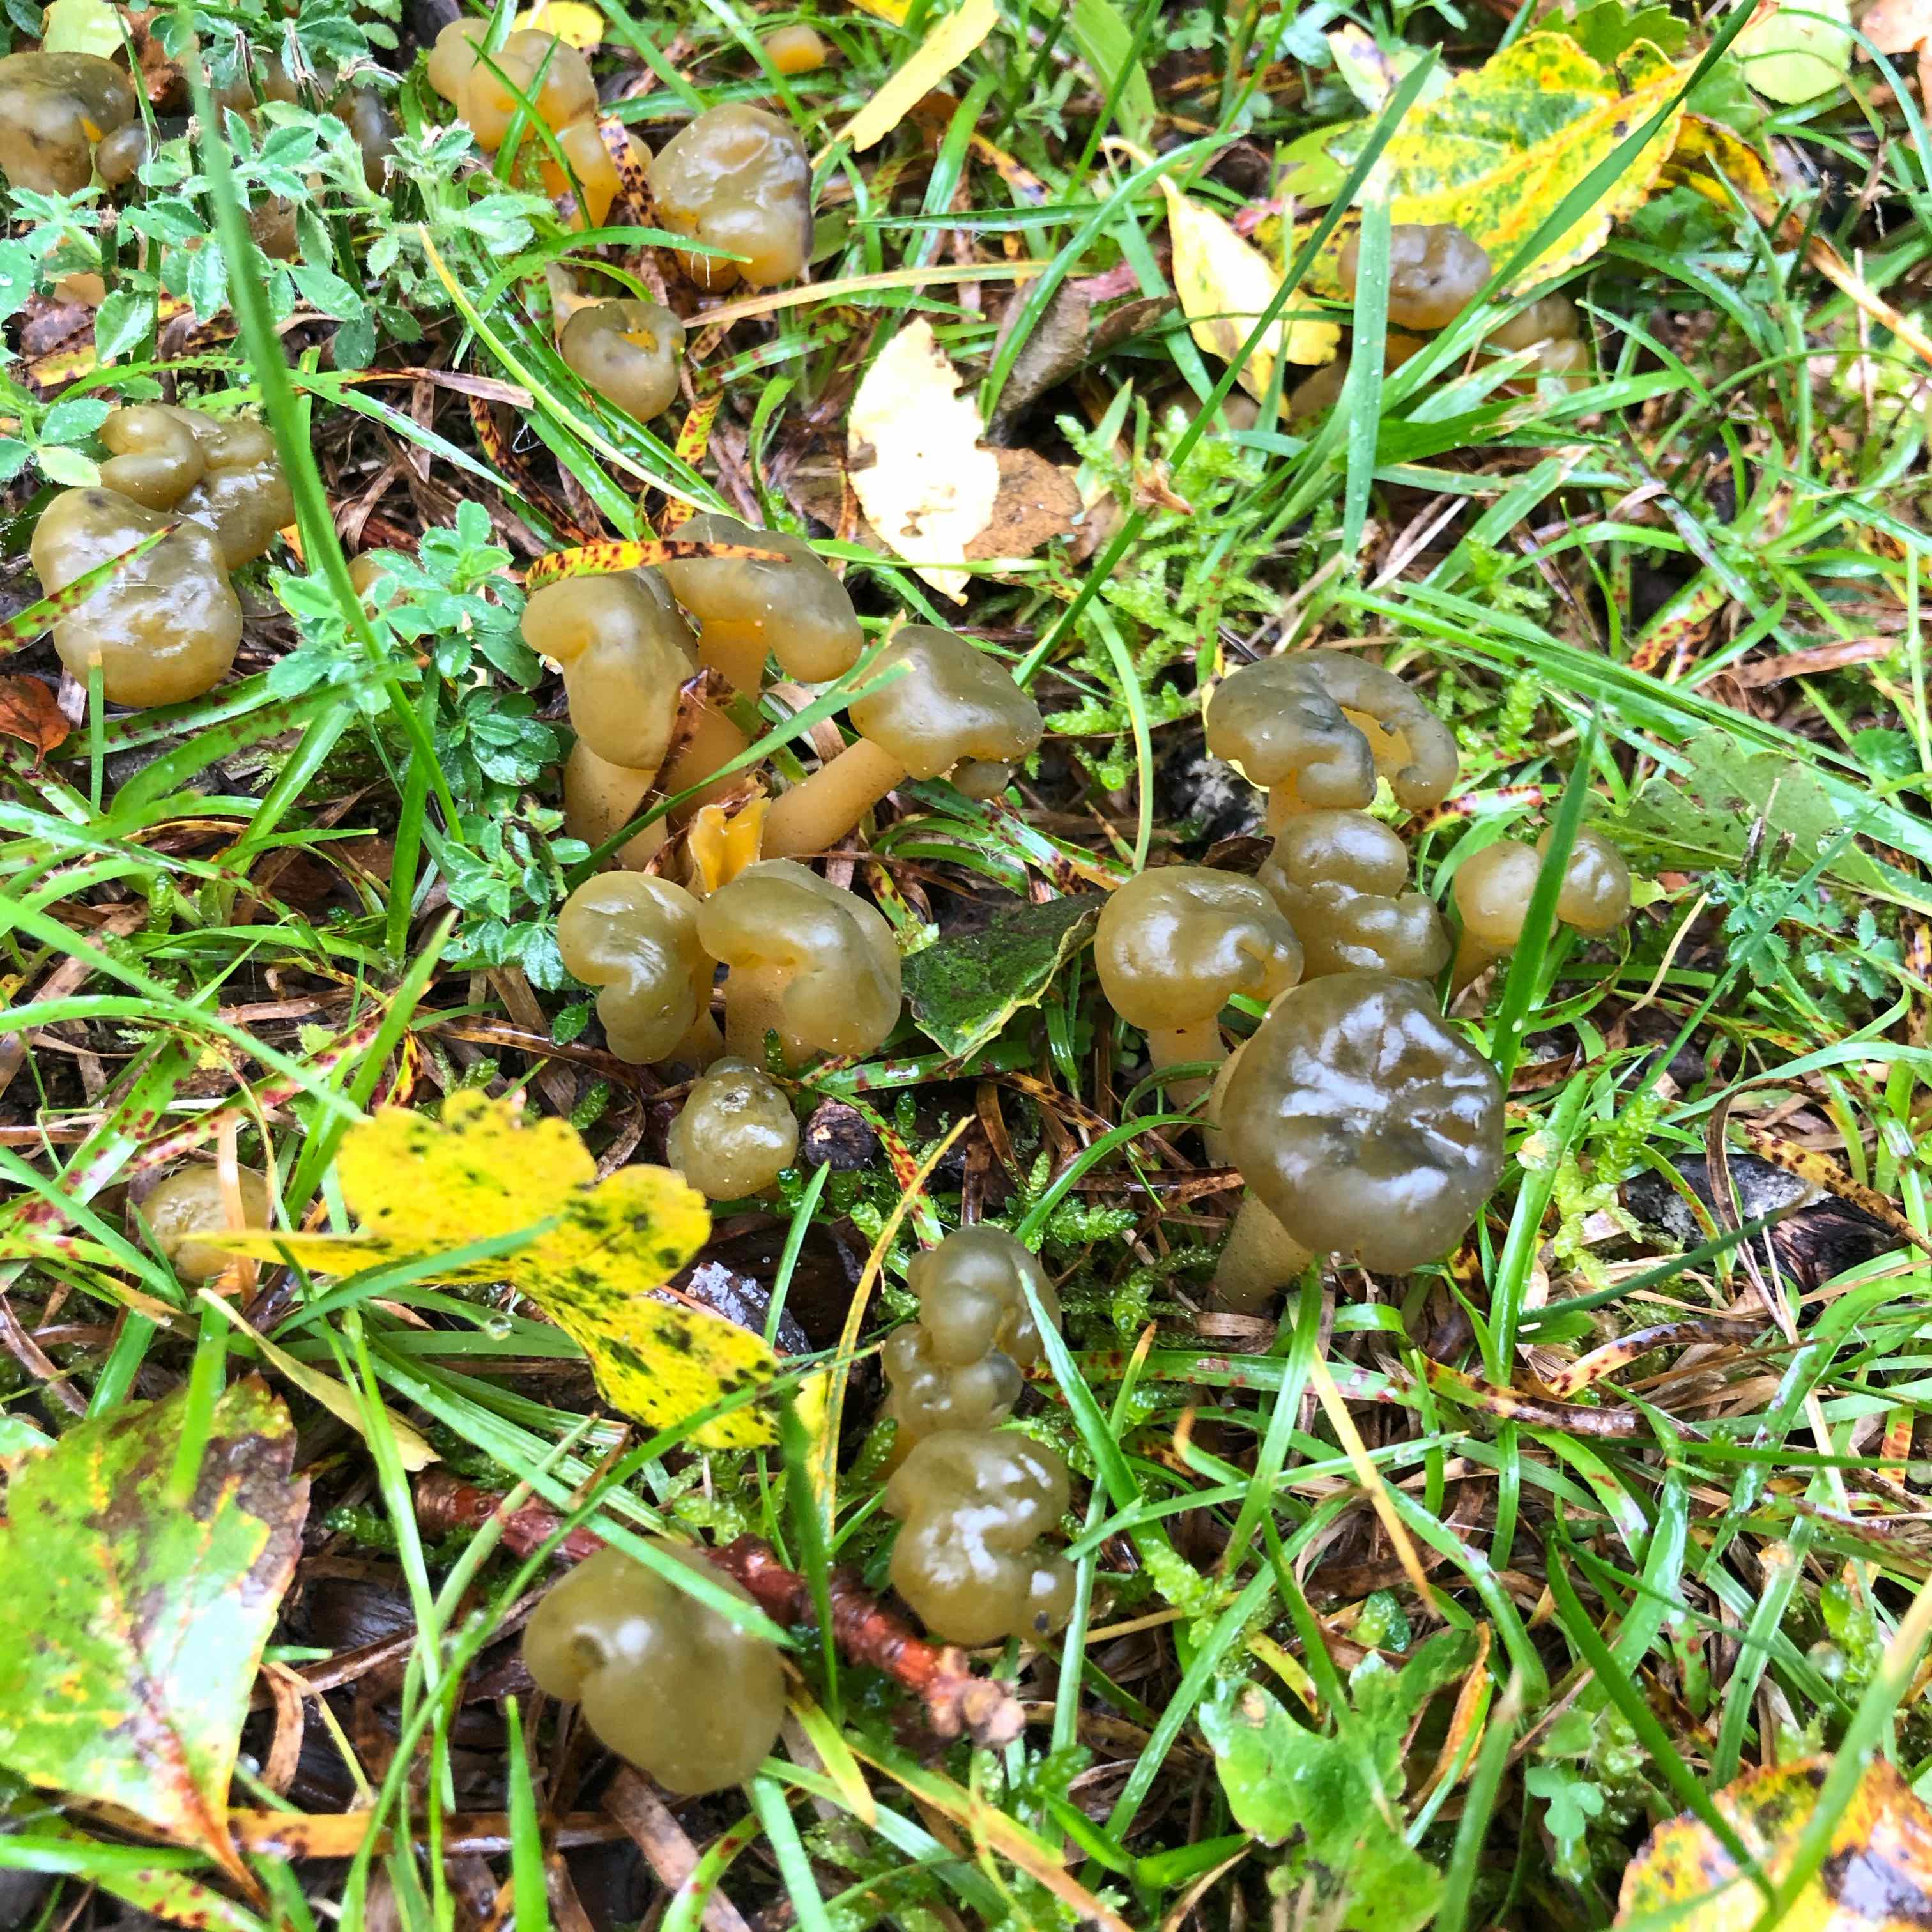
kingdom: Fungi
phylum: Ascomycota
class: Leotiomycetes
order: Leotiales
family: Leotiaceae
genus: Leotia
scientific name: Leotia lubrica
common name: ravsvamp
